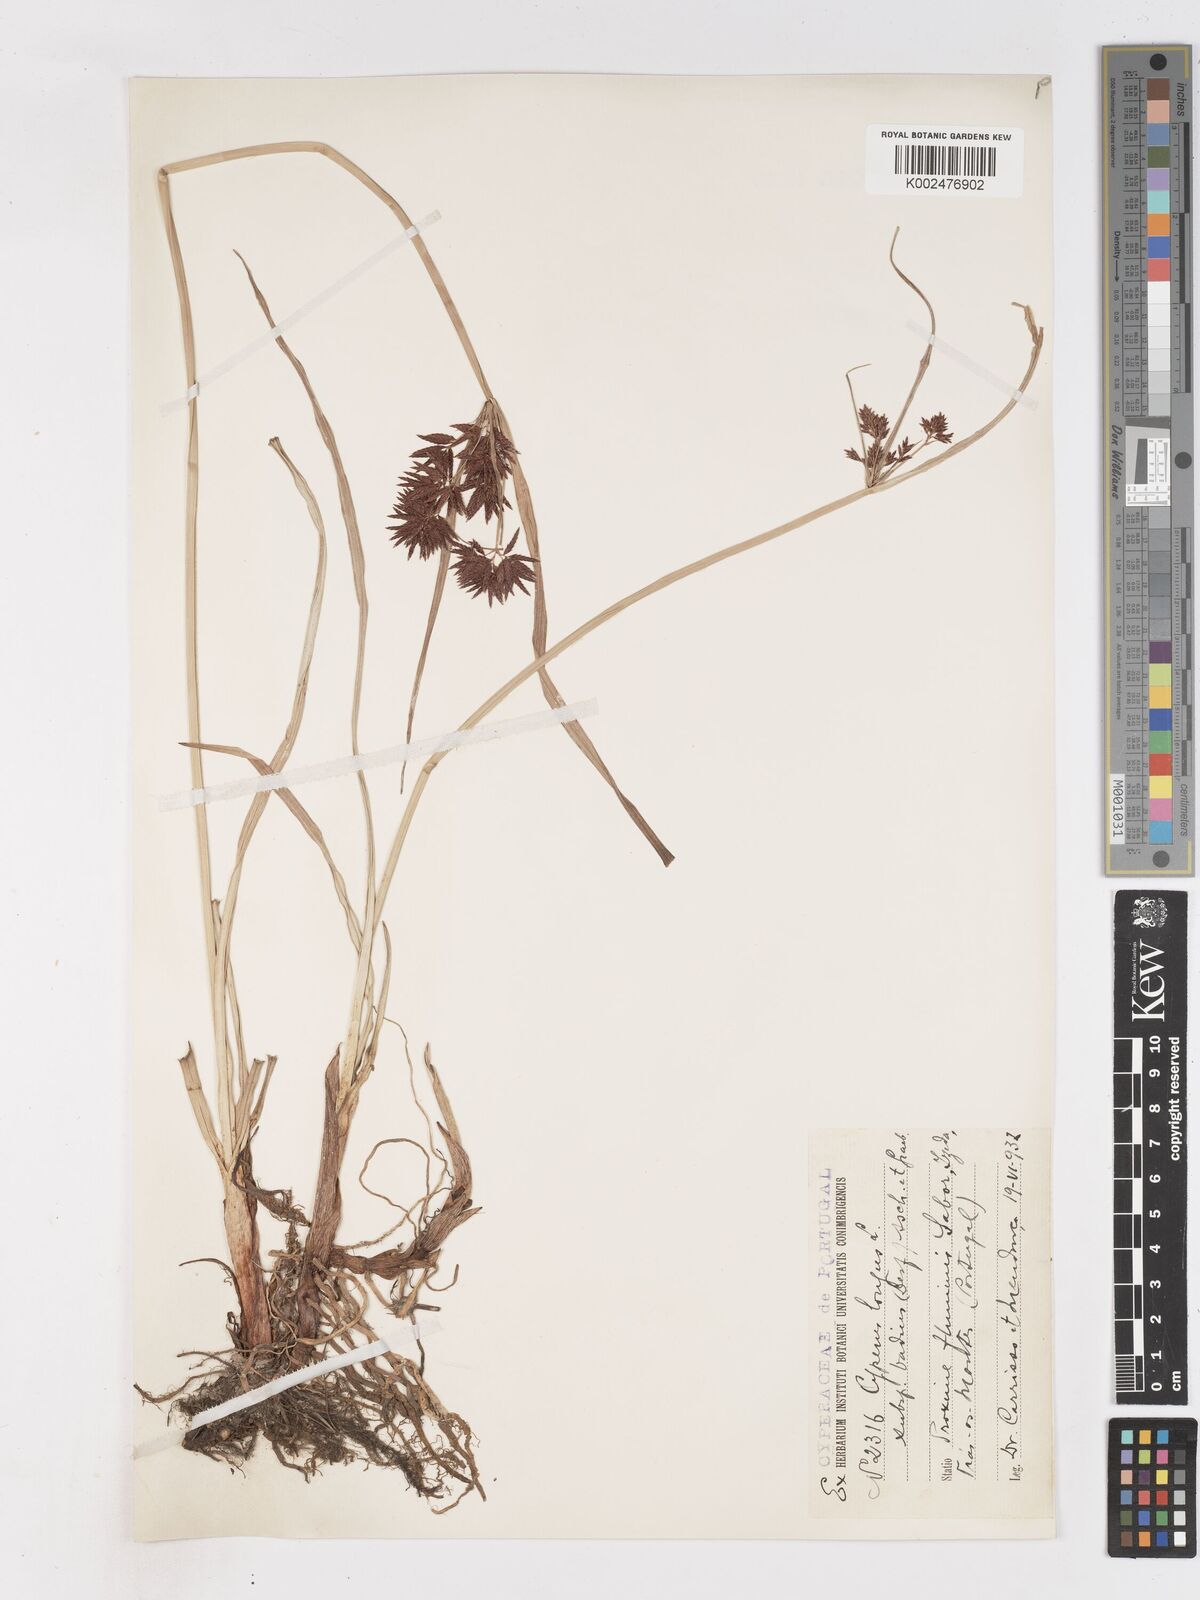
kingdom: Plantae
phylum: Tracheophyta
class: Liliopsida
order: Poales
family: Cyperaceae
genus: Cyperus
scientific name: Cyperus longus
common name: Galingale
